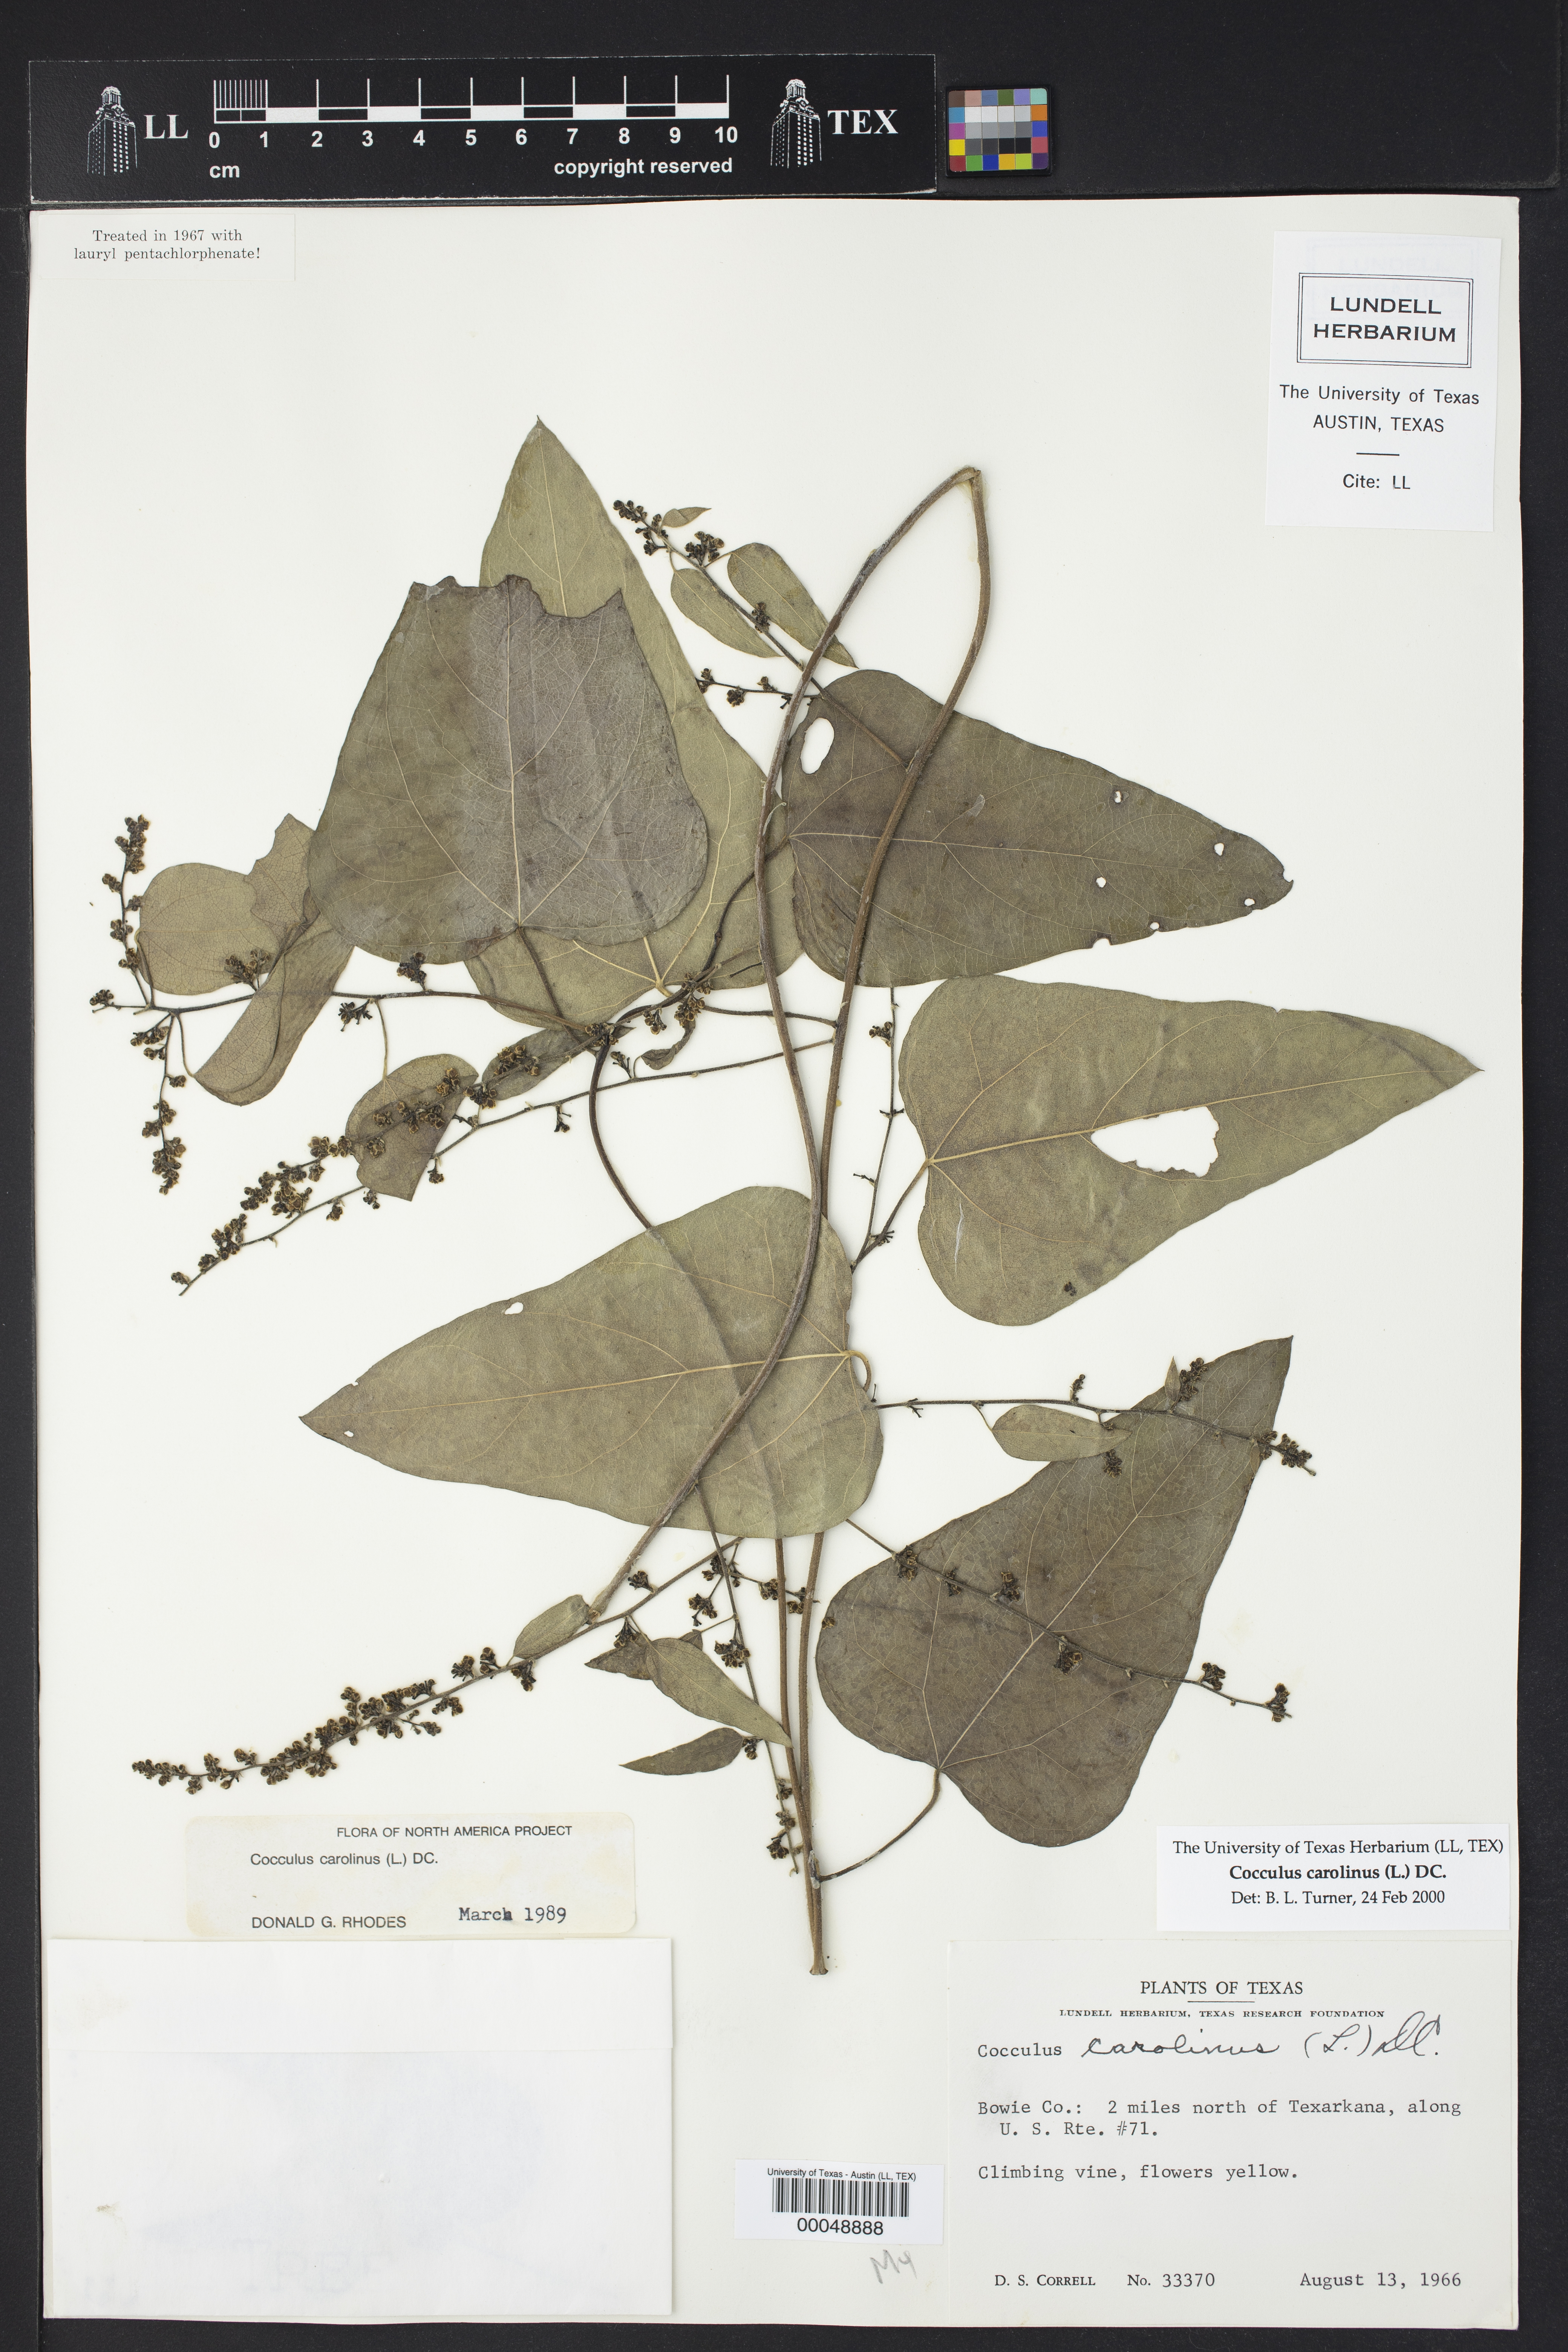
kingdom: Plantae
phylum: Tracheophyta
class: Magnoliopsida
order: Ranunculales
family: Menispermaceae
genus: Cocculus
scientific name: Cocculus carolinus
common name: Carolina moonseed
